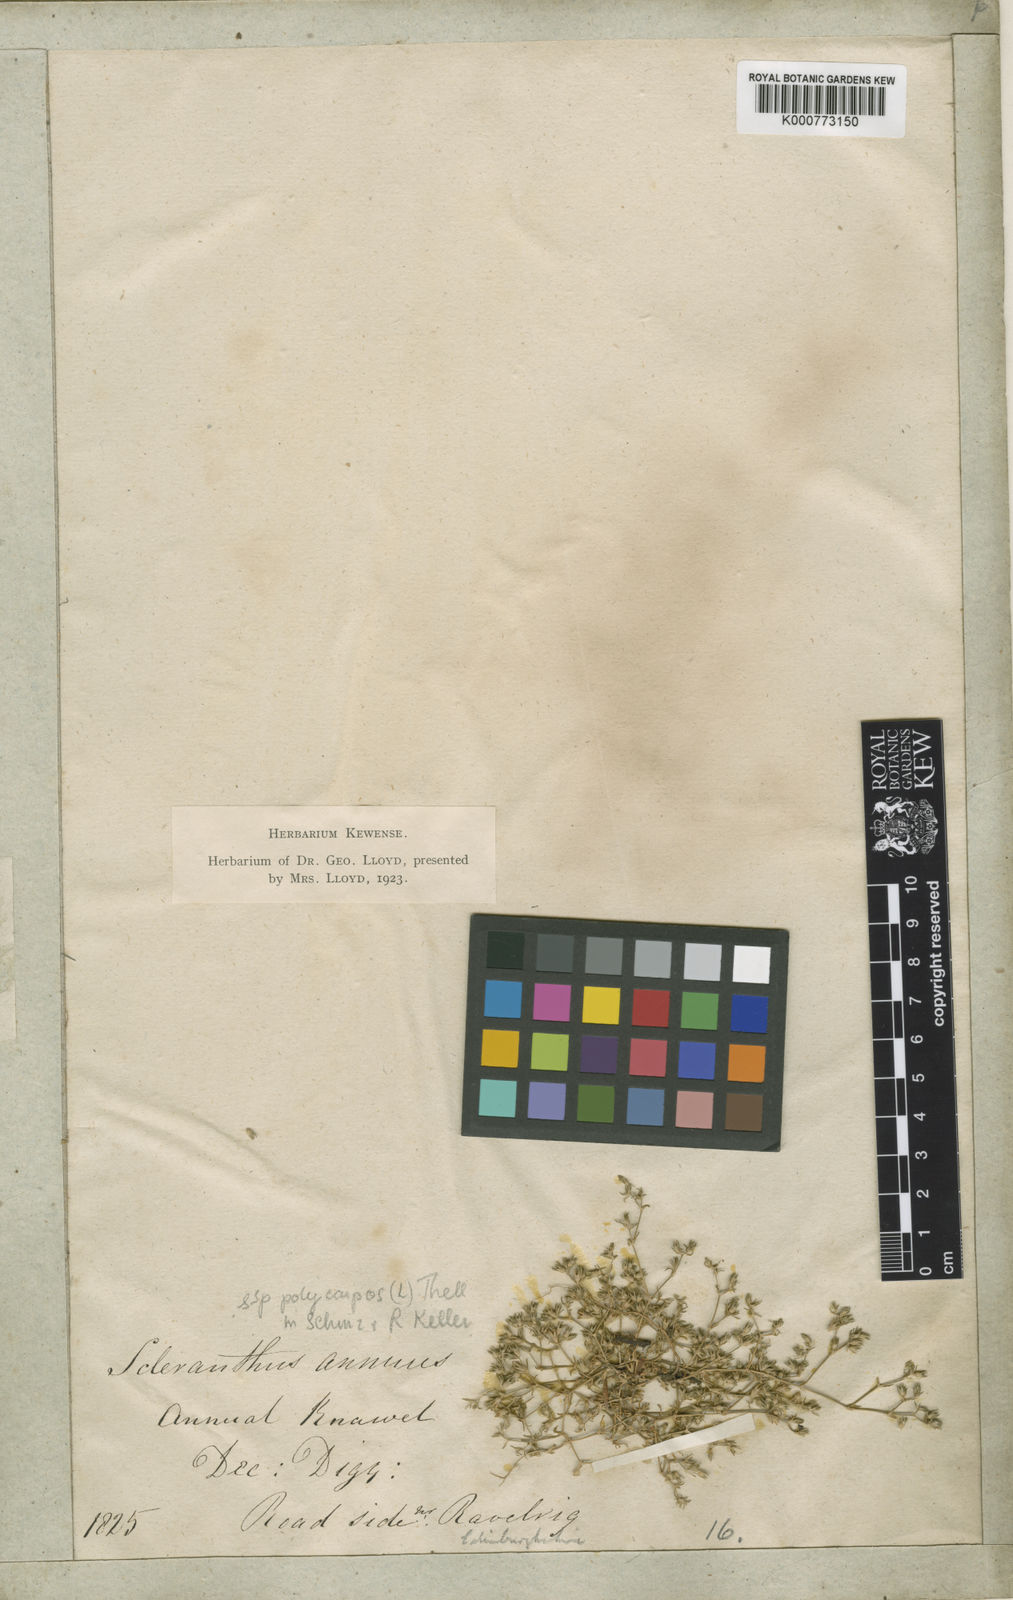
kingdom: Plantae
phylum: Tracheophyta
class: Magnoliopsida
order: Caryophyllales
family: Caryophyllaceae
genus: Scleranthus
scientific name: Scleranthus annuus
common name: Annual knawel
